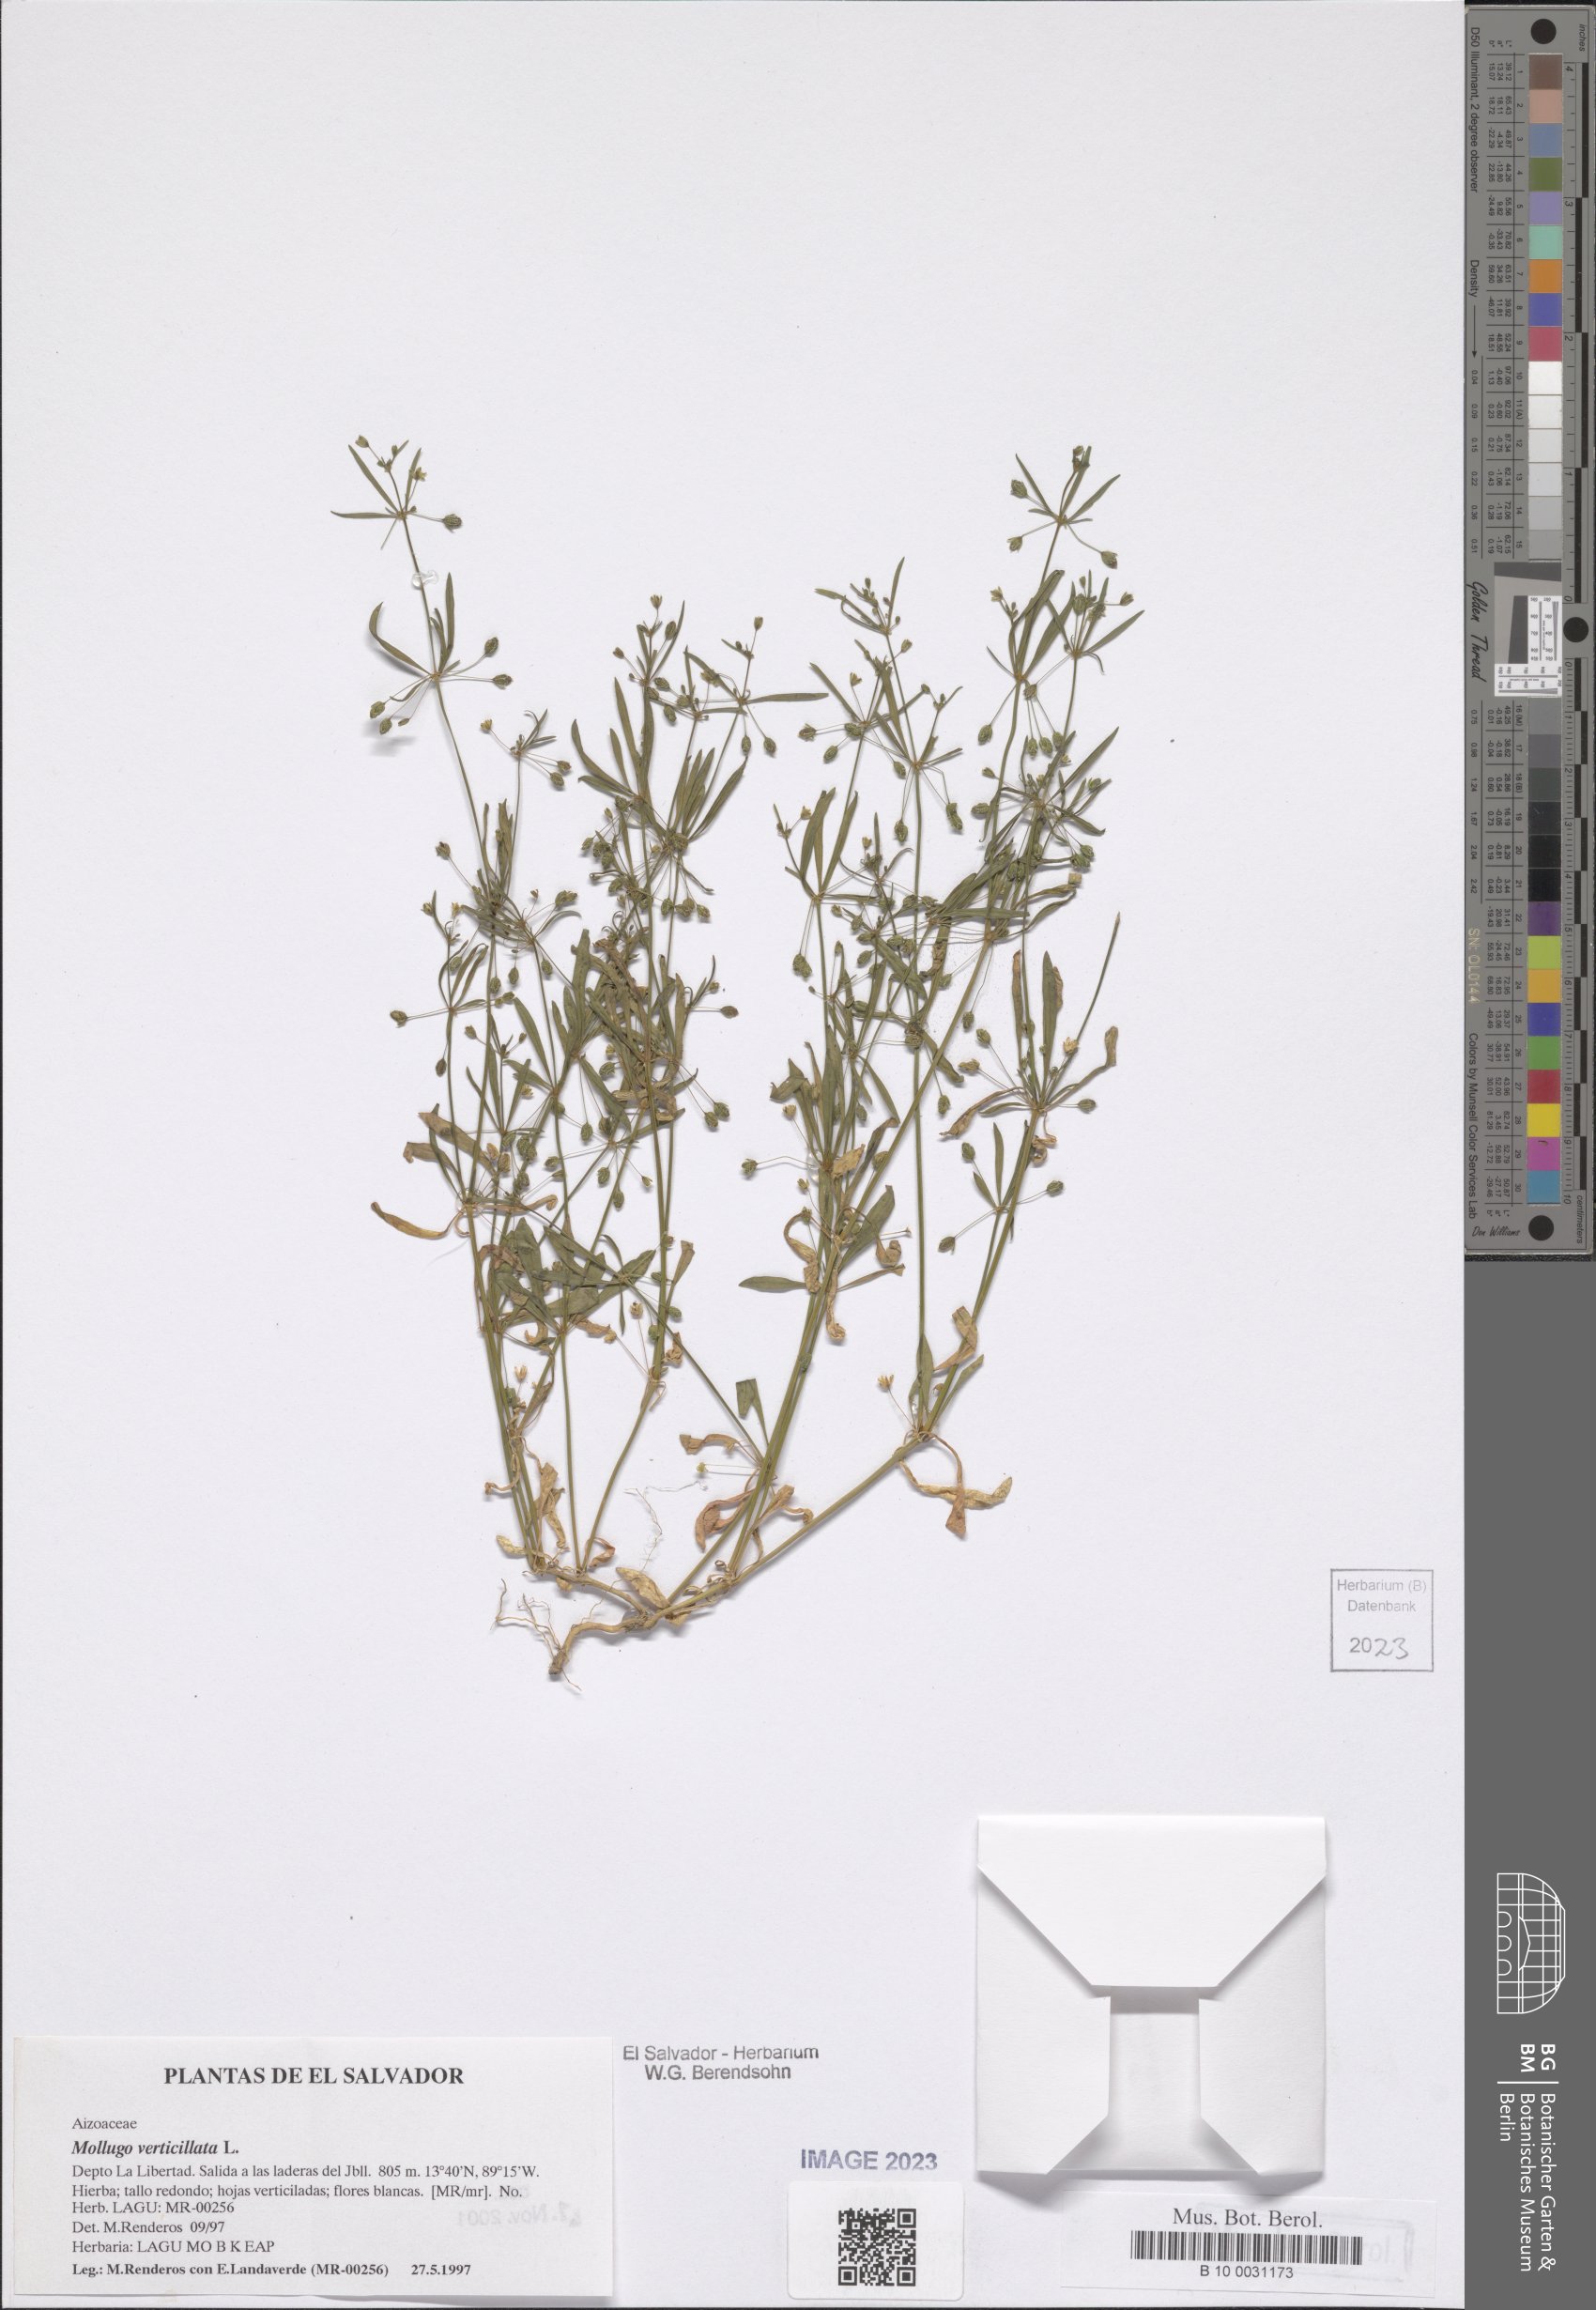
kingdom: Plantae
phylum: Tracheophyta
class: Magnoliopsida
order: Caryophyllales
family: Molluginaceae
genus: Mollugo
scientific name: Mollugo verticillata
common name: Green carpetweed
